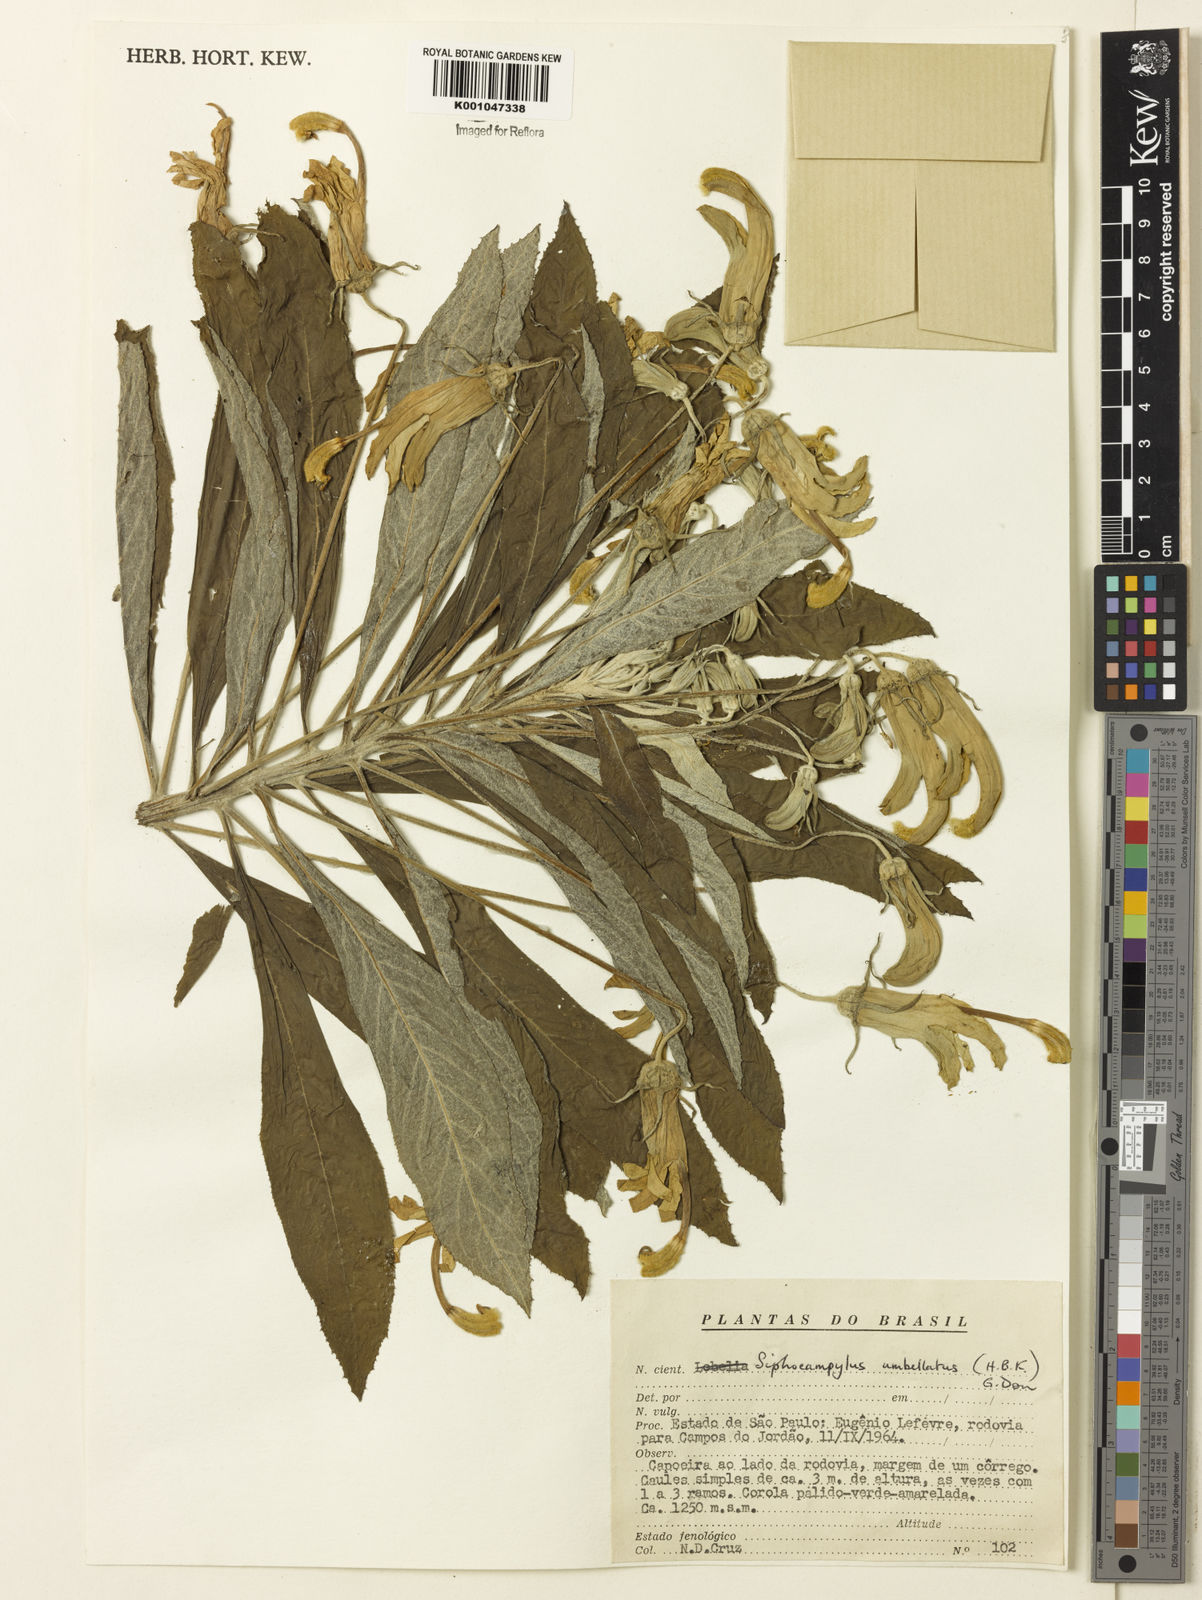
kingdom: Plantae
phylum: Tracheophyta
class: Magnoliopsida
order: Asterales
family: Campanulaceae
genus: Siphocampylus
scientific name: Siphocampylus umbellatus
